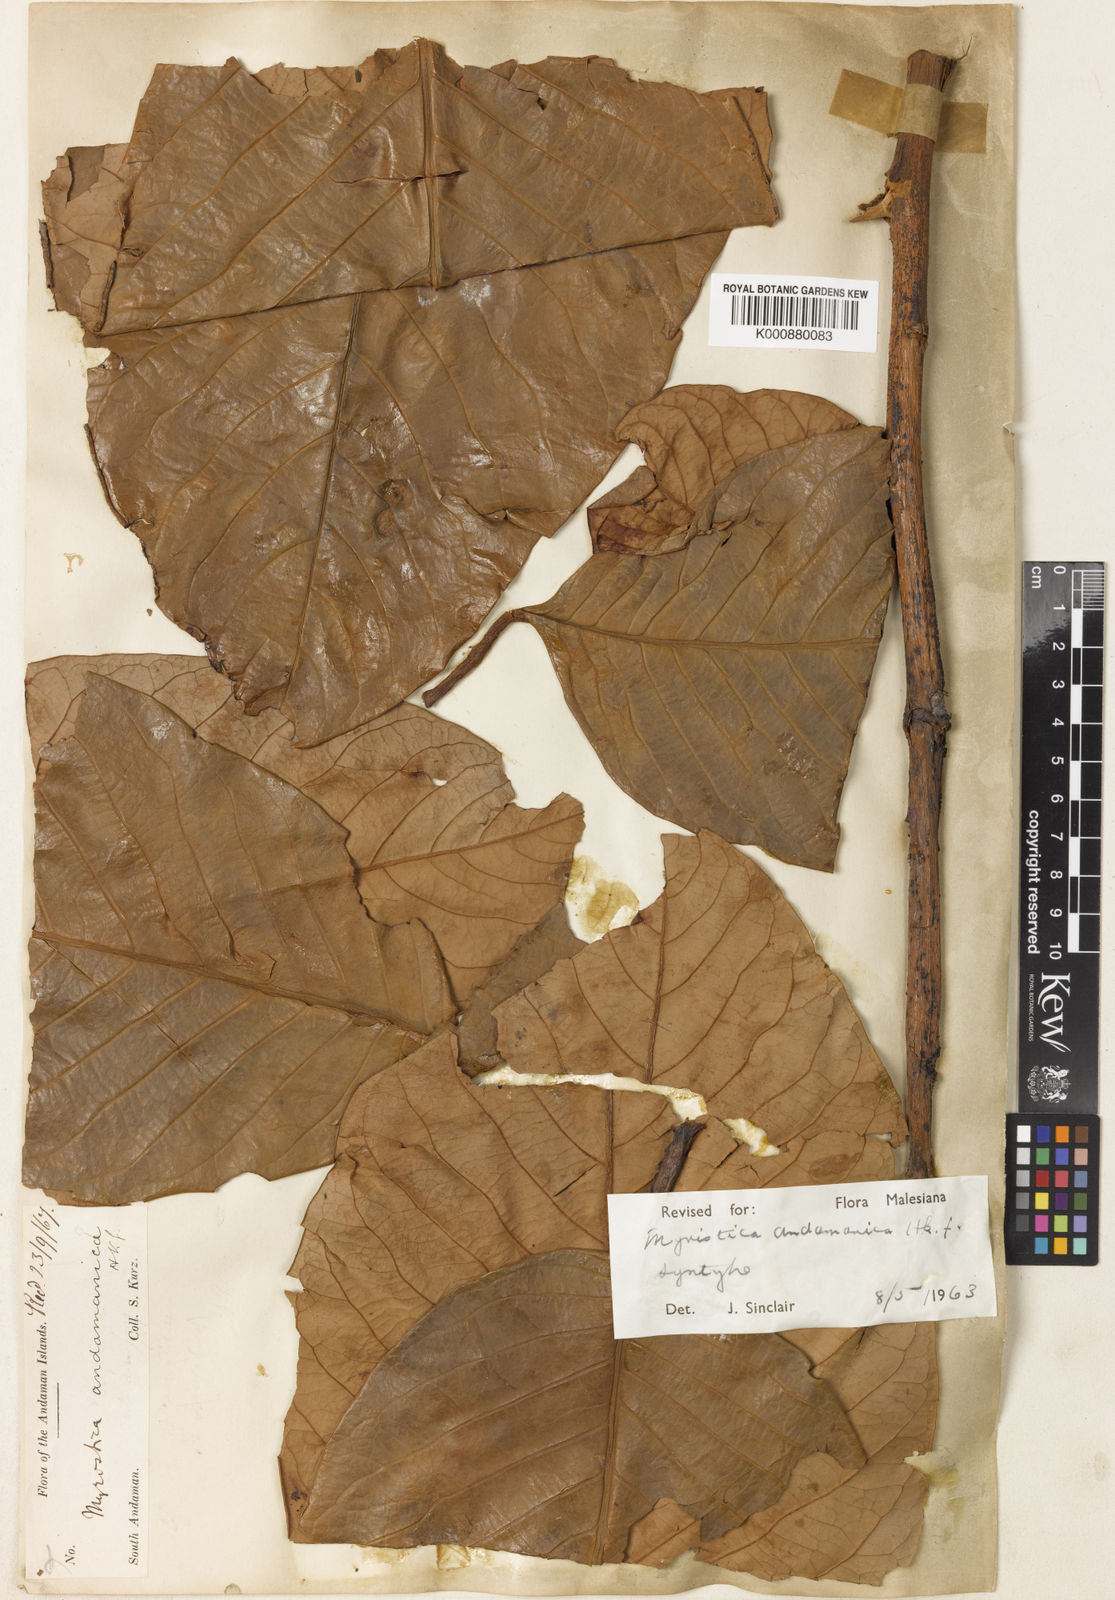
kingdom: Plantae
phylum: Tracheophyta
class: Magnoliopsida
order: Magnoliales
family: Myristicaceae
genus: Myristica
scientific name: Myristica andamanica
